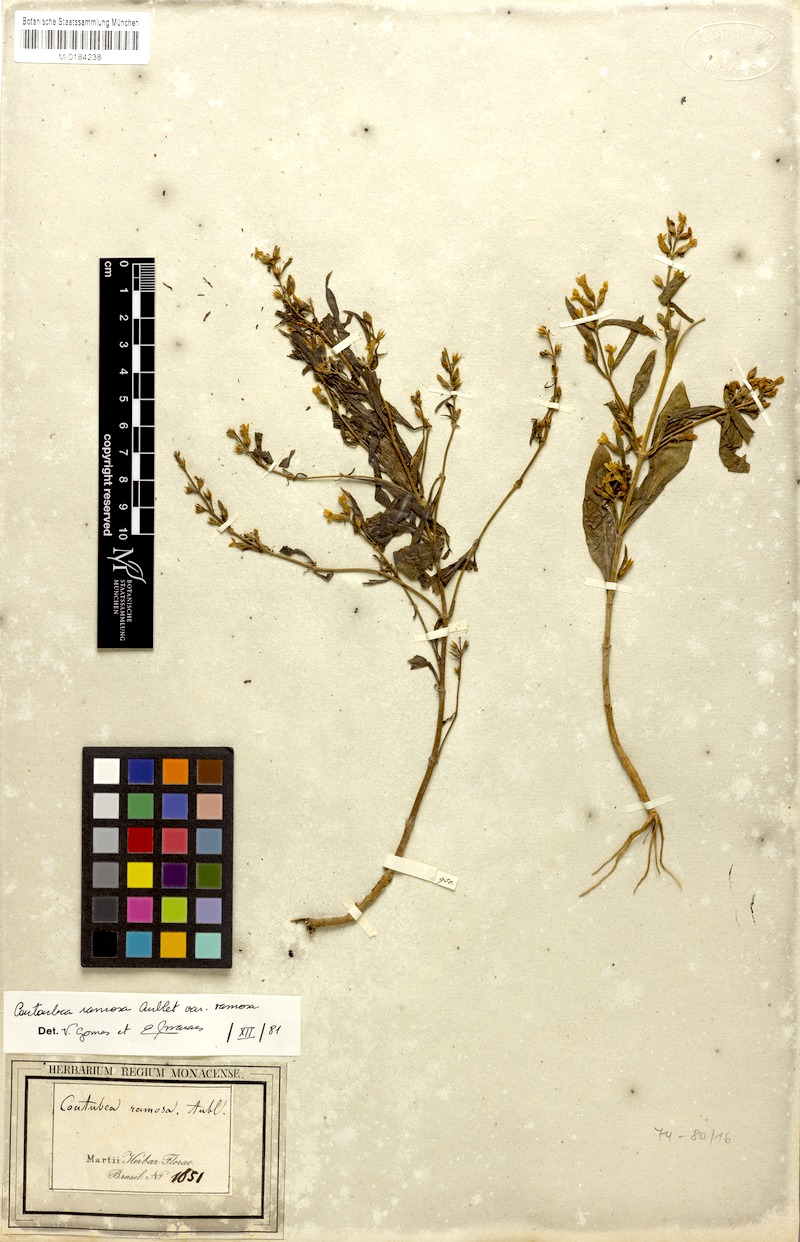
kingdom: Plantae
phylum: Tracheophyta
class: Magnoliopsida
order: Gentianales
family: Gentianaceae
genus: Coutoubea
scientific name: Coutoubea ramosa
